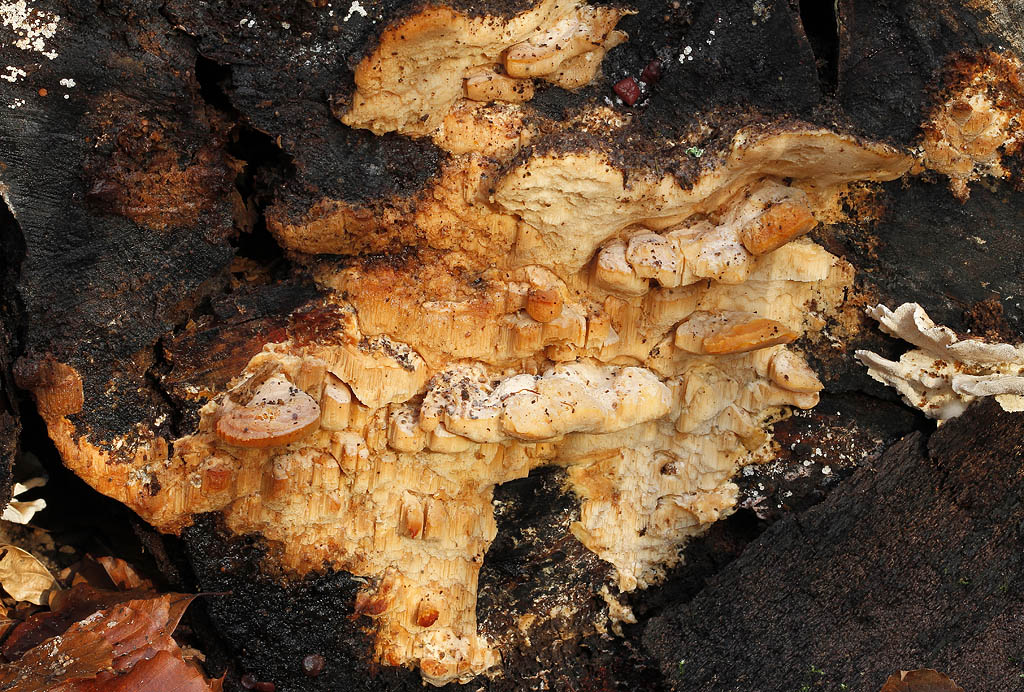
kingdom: Fungi
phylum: Basidiomycota
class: Agaricomycetes
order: Polyporales
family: Steccherinaceae
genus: Antrodiella
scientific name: Antrodiella mentschulensis
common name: abrikosporesvamp
